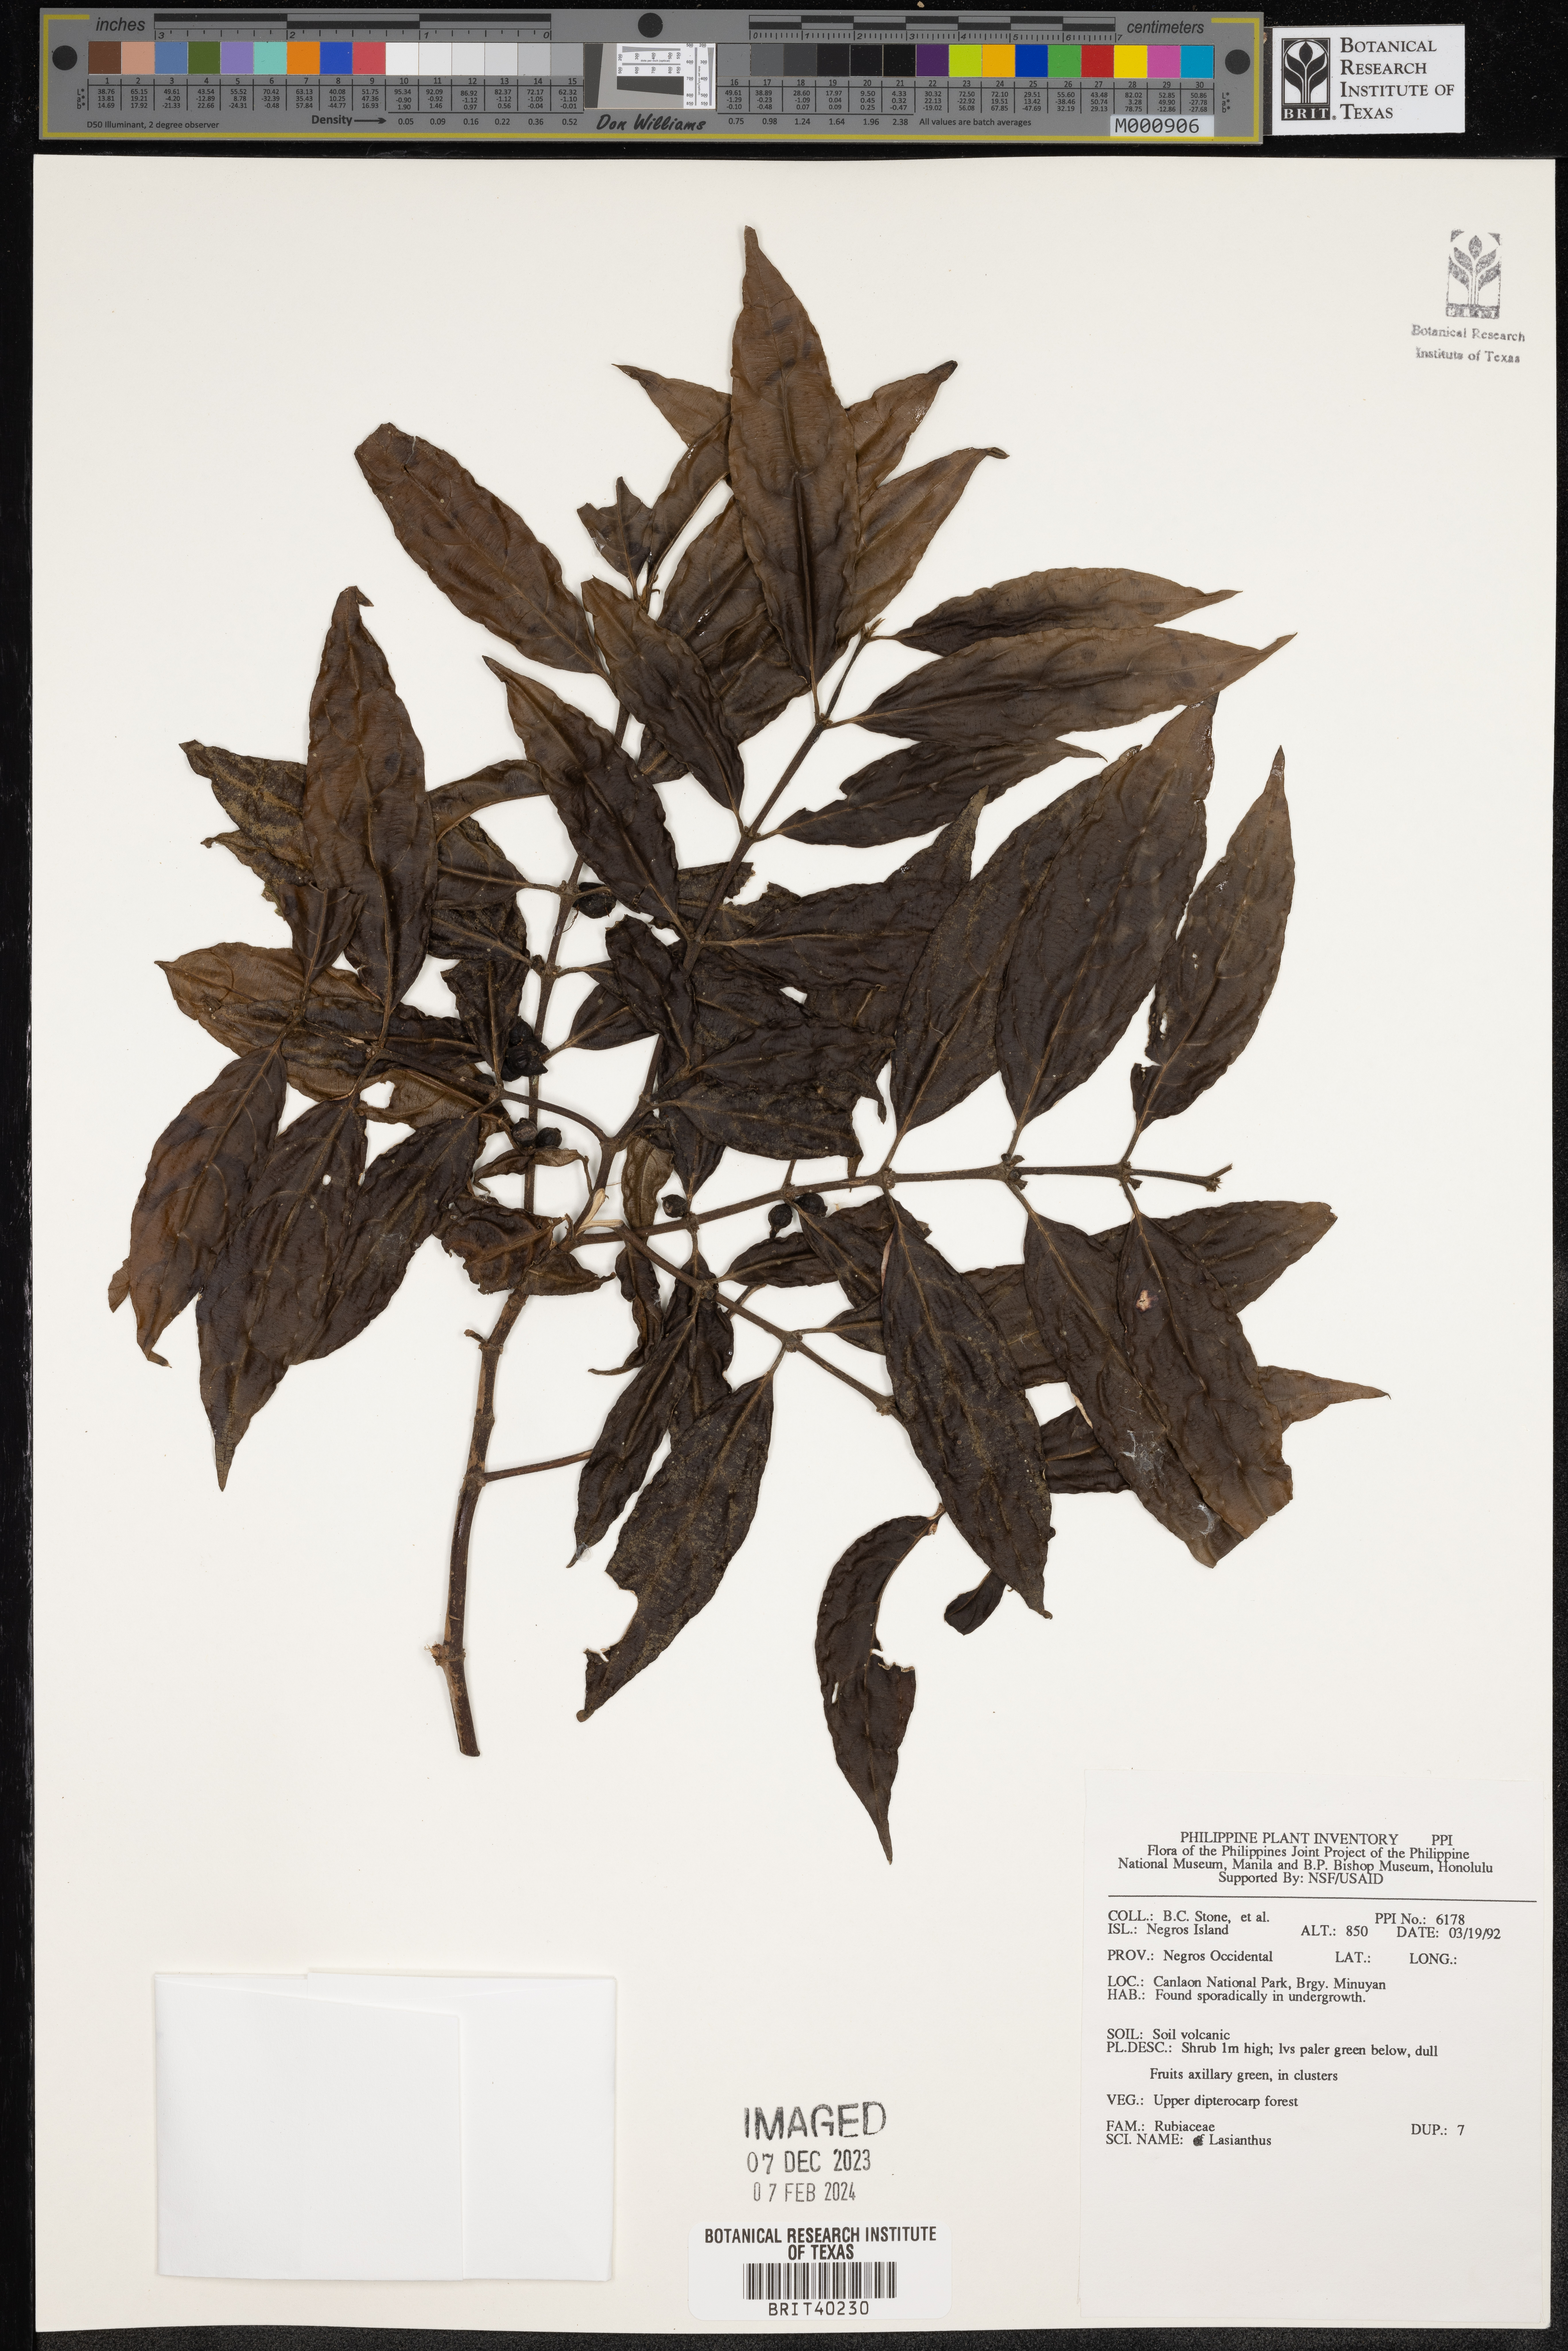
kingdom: Plantae
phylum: Tracheophyta
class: Magnoliopsida
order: Gentianales
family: Rubiaceae
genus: Lasianthus
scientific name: Lasianthus
